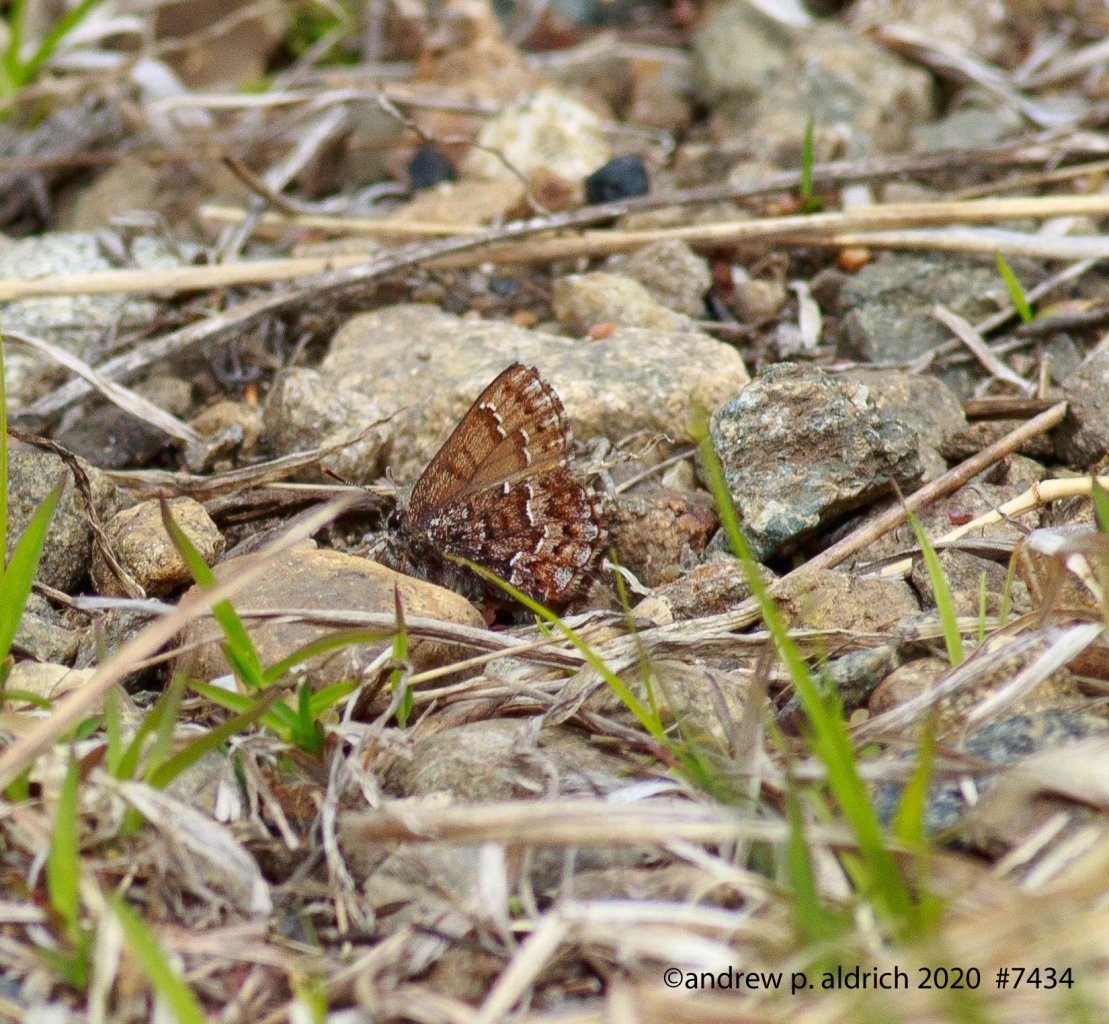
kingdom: Animalia
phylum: Arthropoda
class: Insecta
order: Lepidoptera
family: Lycaenidae
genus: Incisalia
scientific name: Incisalia niphon
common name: Eastern Pine Elfin
